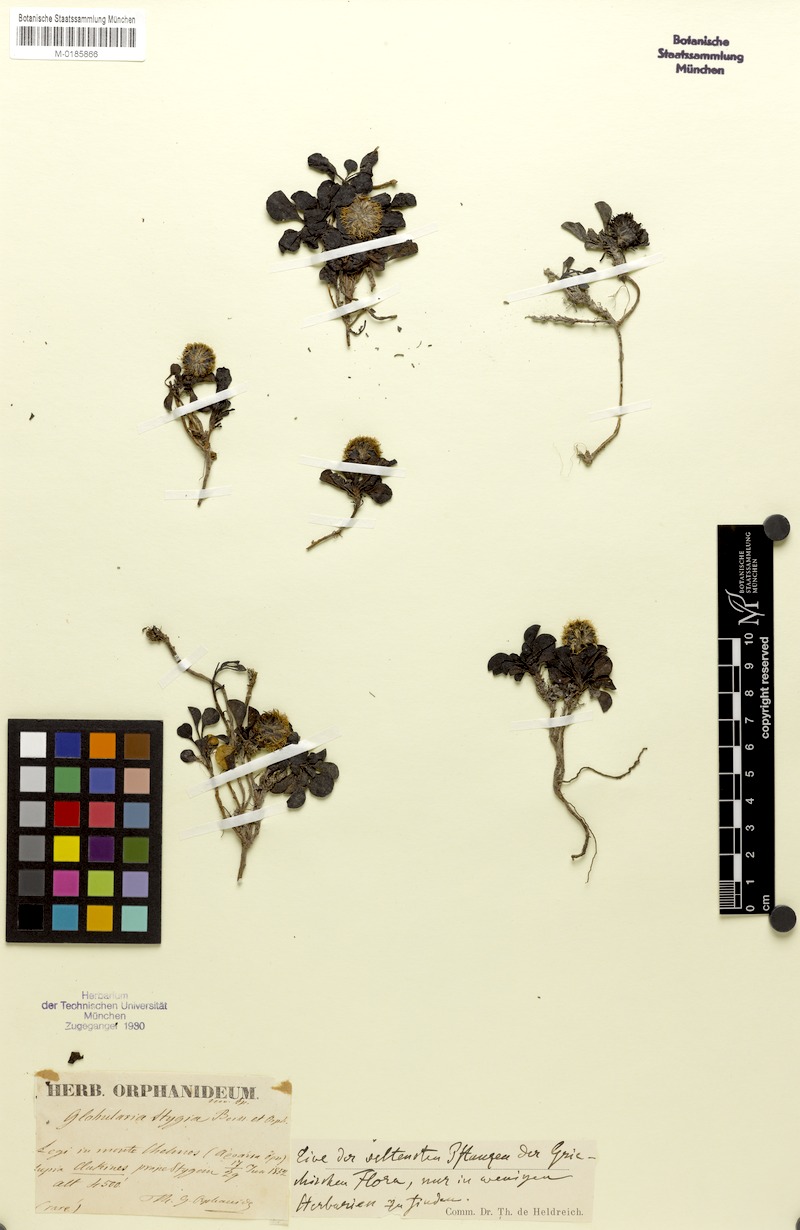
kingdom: Plantae
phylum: Tracheophyta
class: Magnoliopsida
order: Lamiales
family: Plantaginaceae
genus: Globularia
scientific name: Globularia stygia
